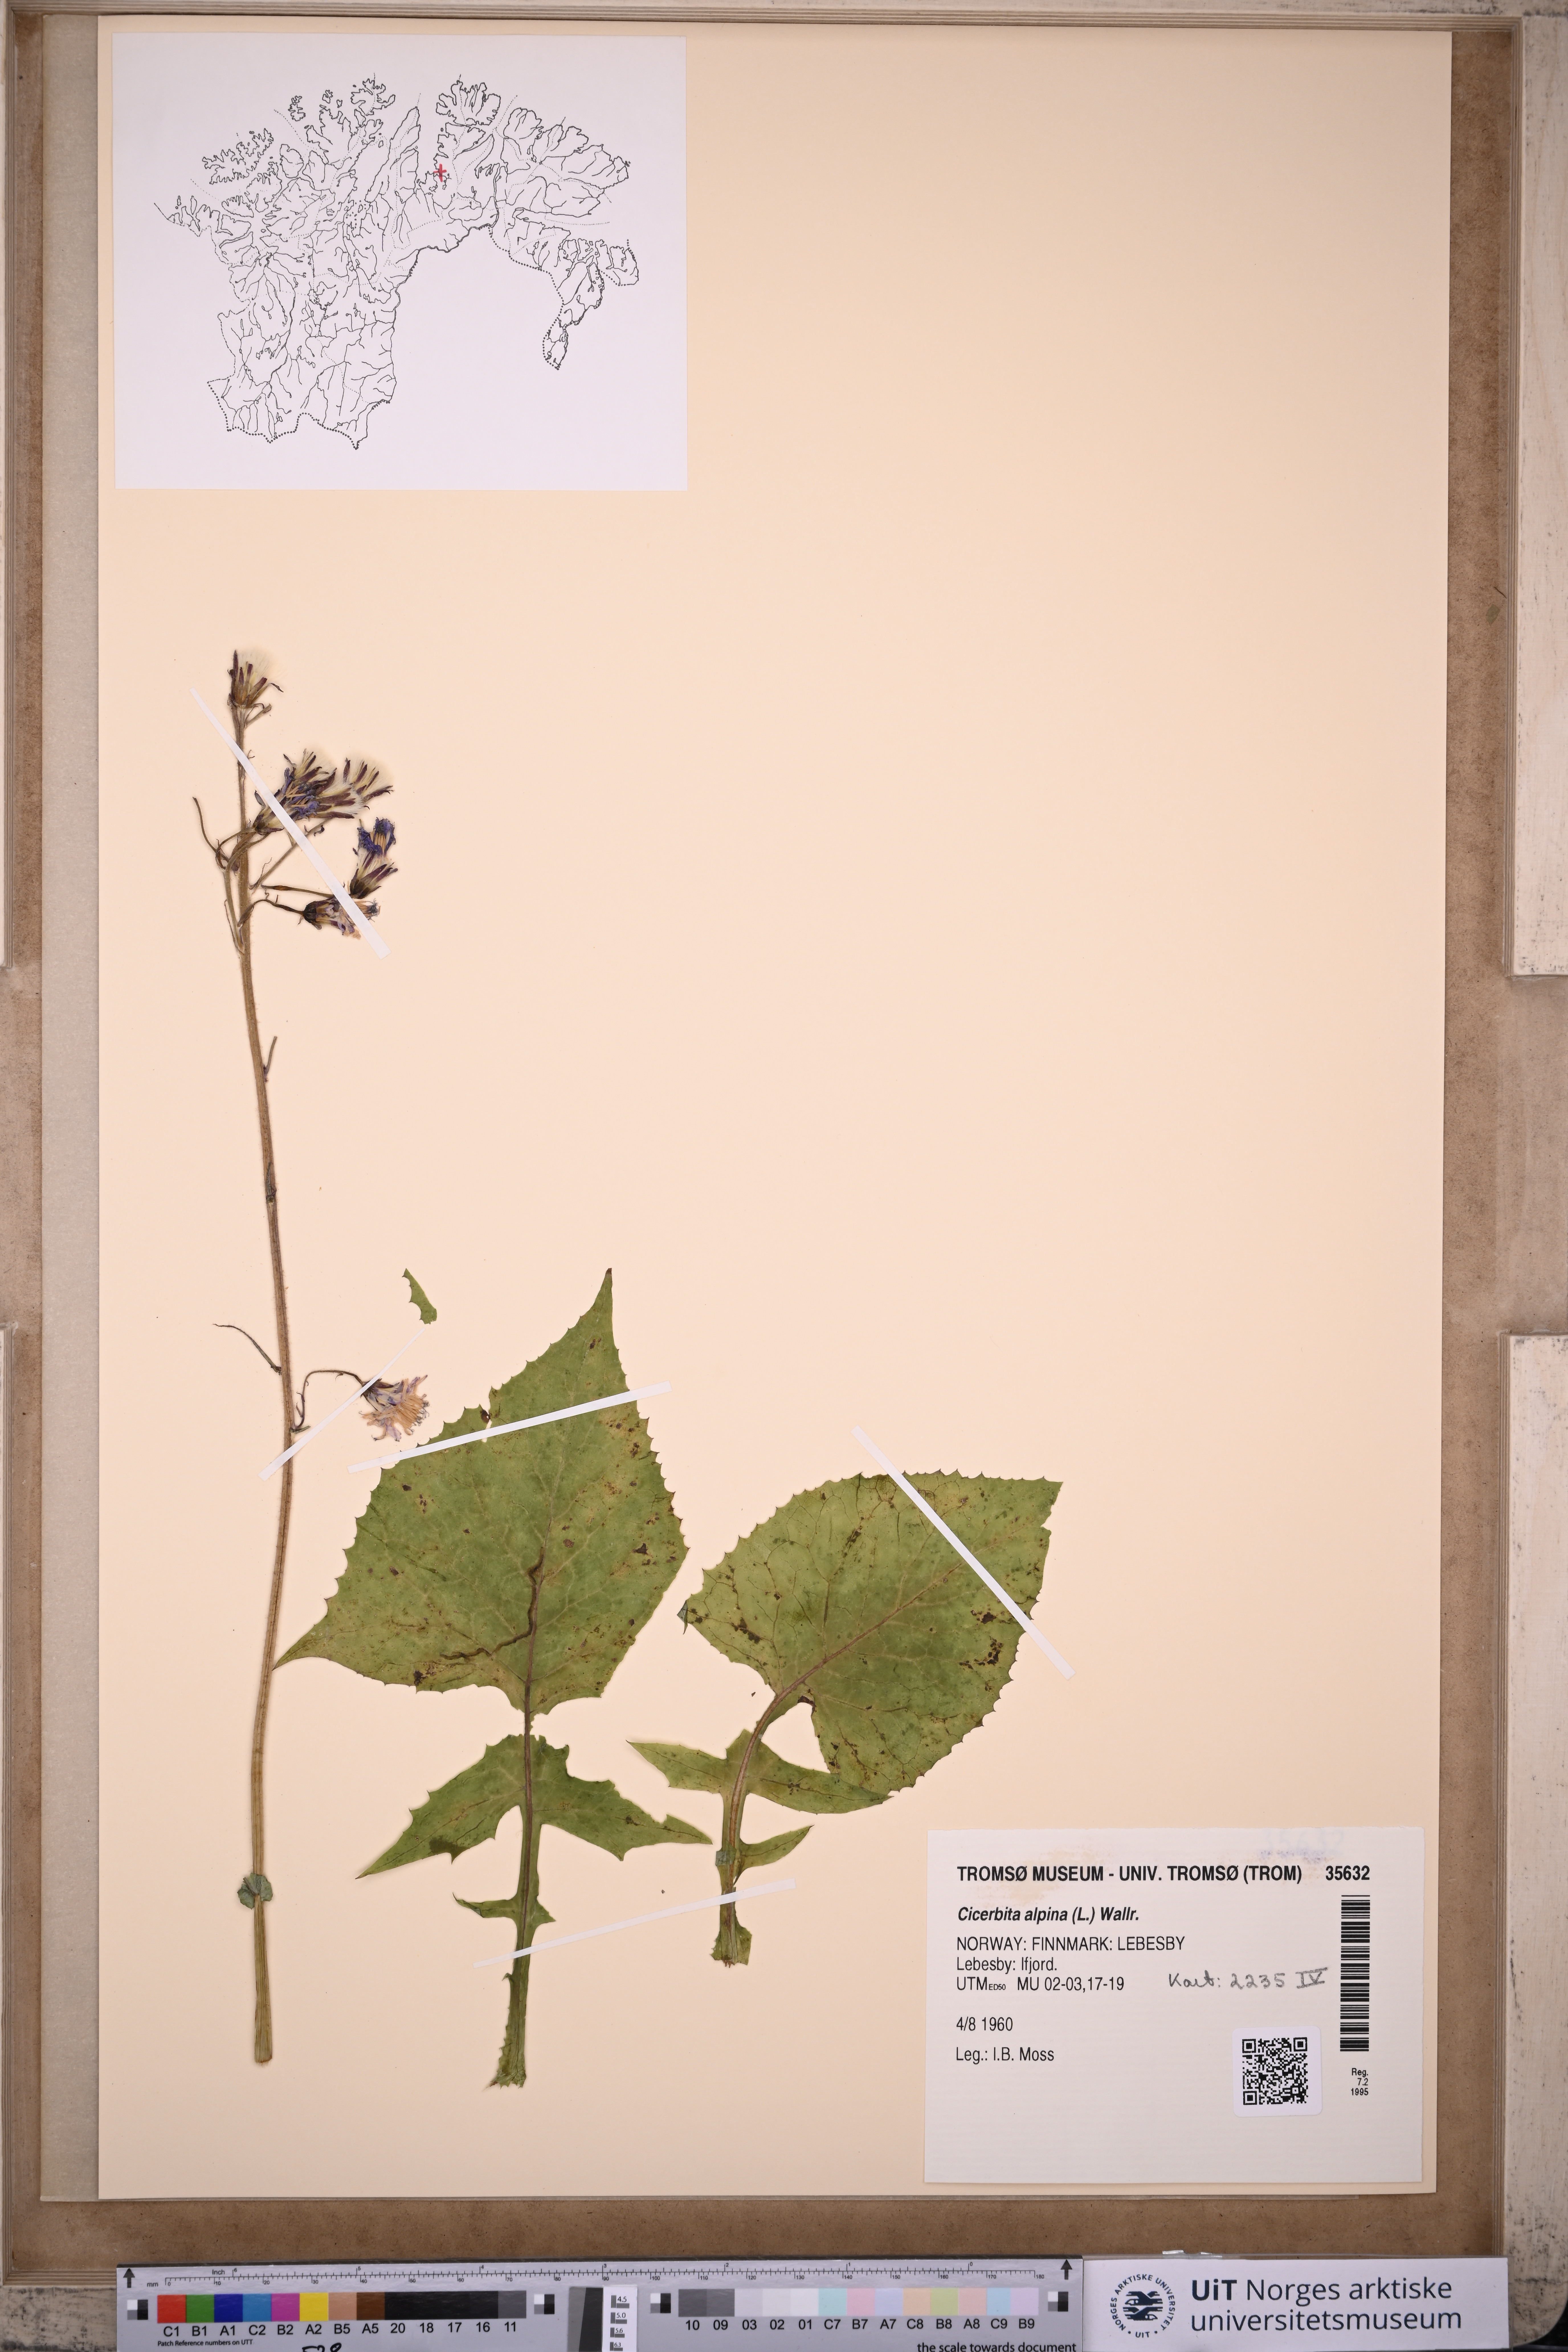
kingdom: Plantae
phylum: Tracheophyta
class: Magnoliopsida
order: Asterales
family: Asteraceae
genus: Cicerbita
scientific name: Cicerbita alpina
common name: Alpine blue-sow-thistle
